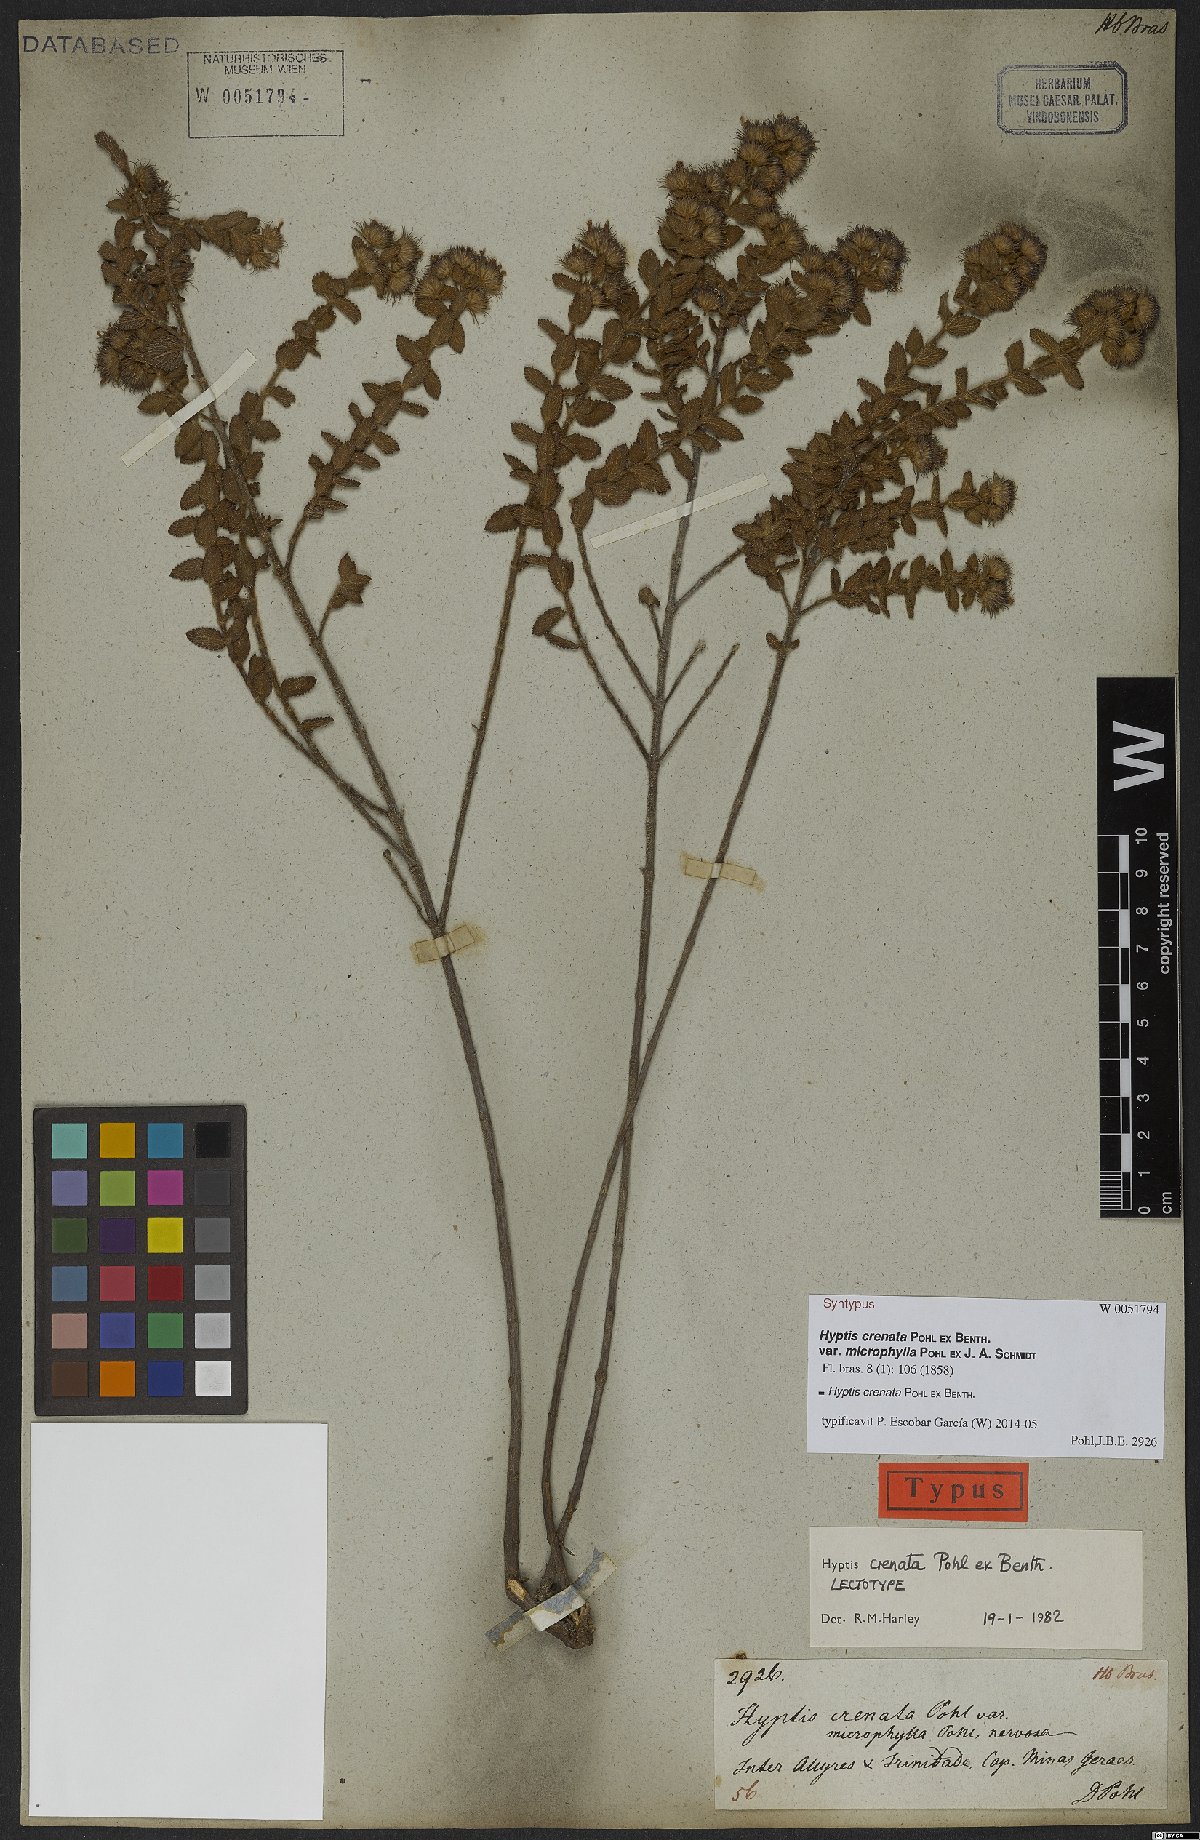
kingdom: Plantae
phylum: Tracheophyta
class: Magnoliopsida
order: Lamiales
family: Lamiaceae
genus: Hyptis
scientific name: Hyptis crenata
